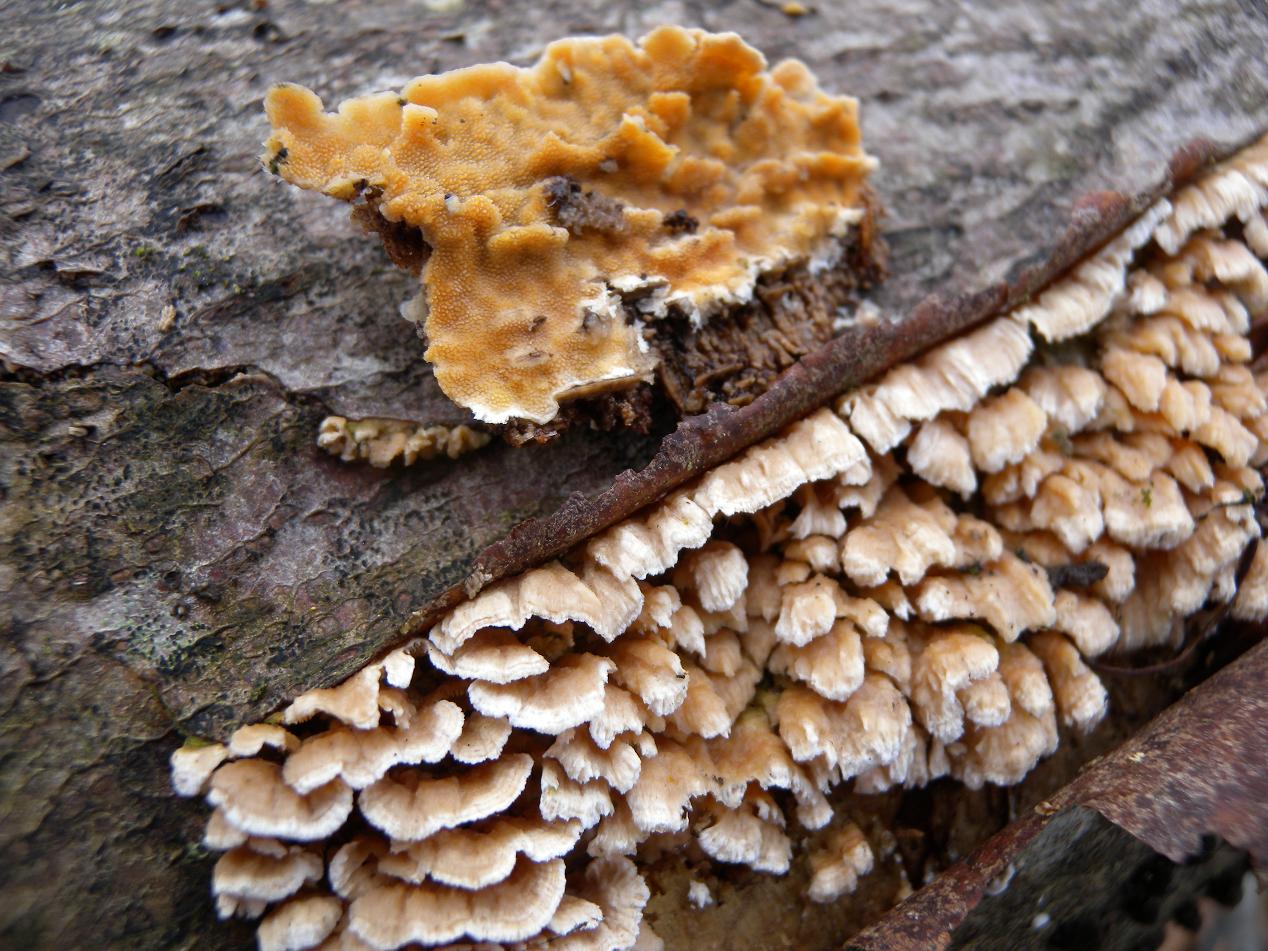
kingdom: Fungi
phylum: Basidiomycota
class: Agaricomycetes
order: Polyporales
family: Steccherinaceae
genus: Steccherinum
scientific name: Steccherinum ochraceum
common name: almindelig skønpig
